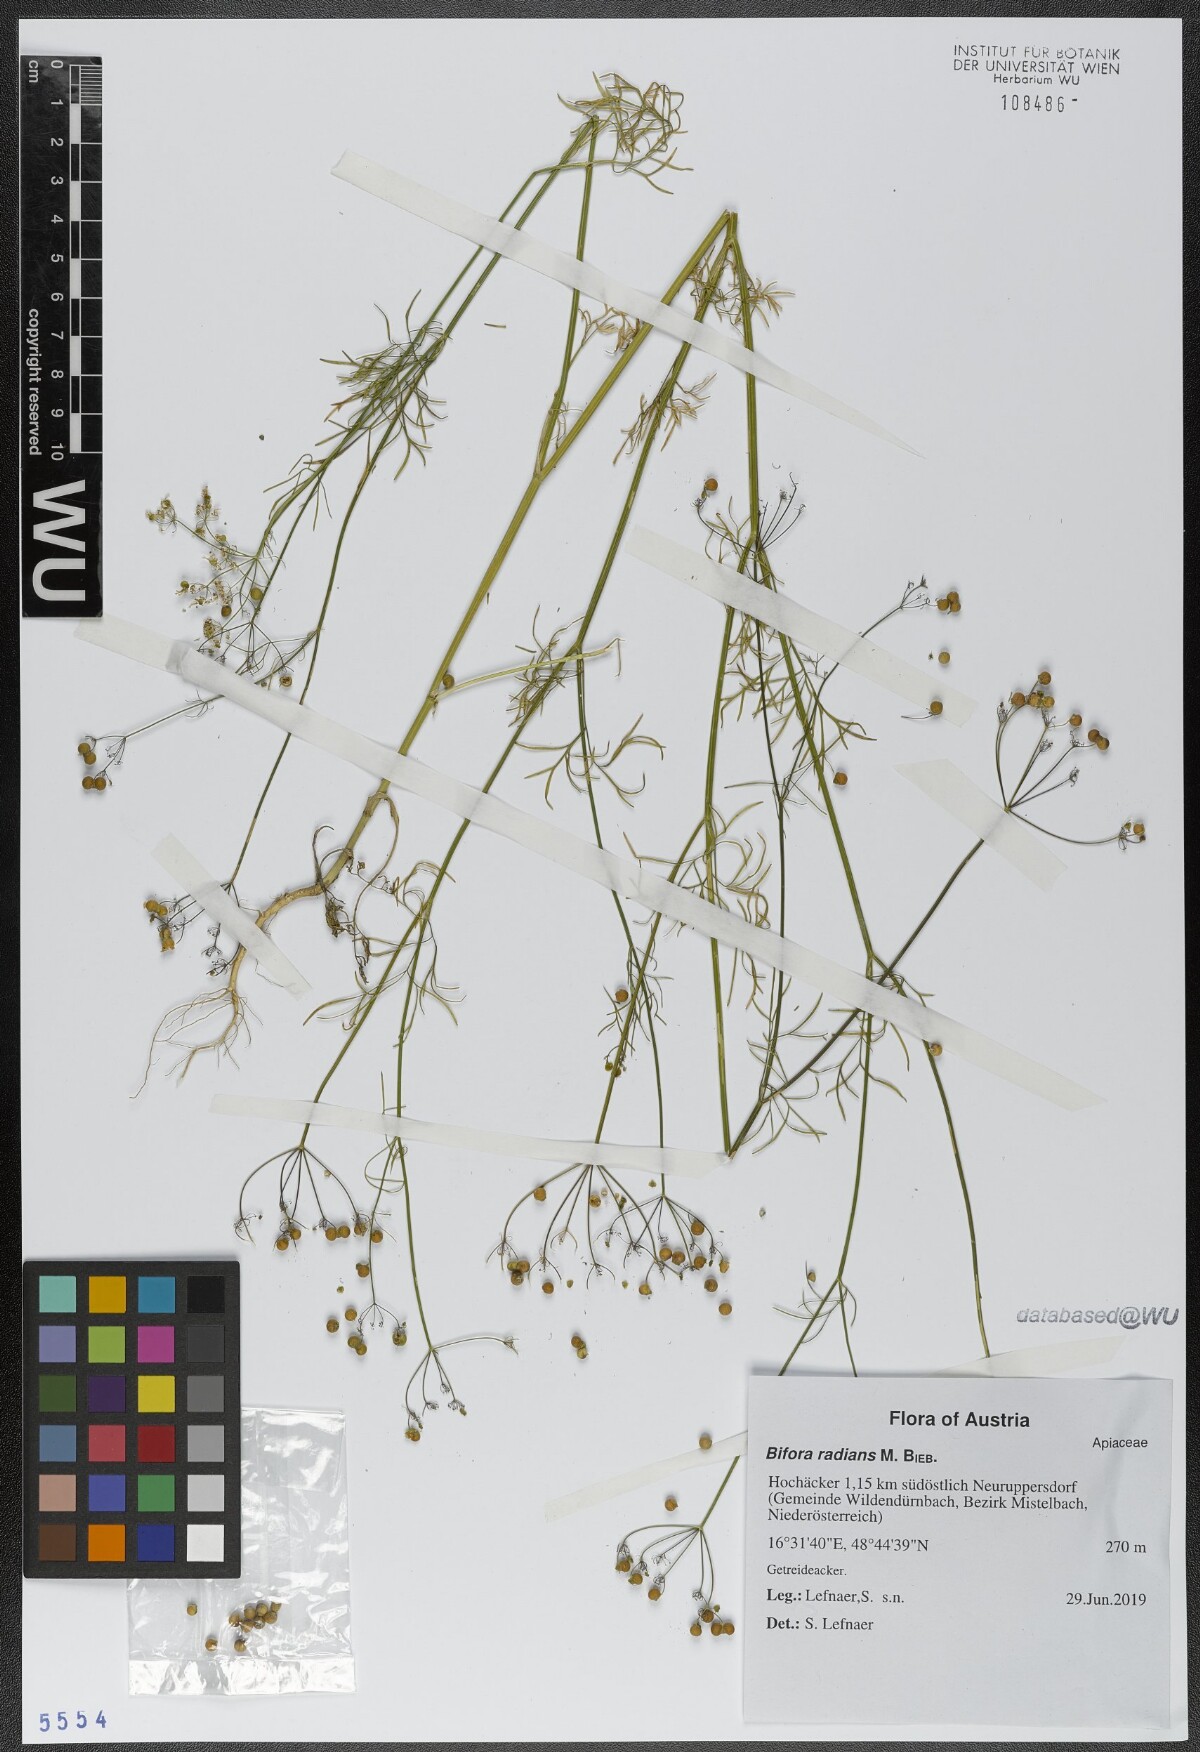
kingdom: Plantae
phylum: Tracheophyta
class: Magnoliopsida
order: Apiales
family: Apiaceae
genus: Bifora
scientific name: Bifora radians
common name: Wild bishop
